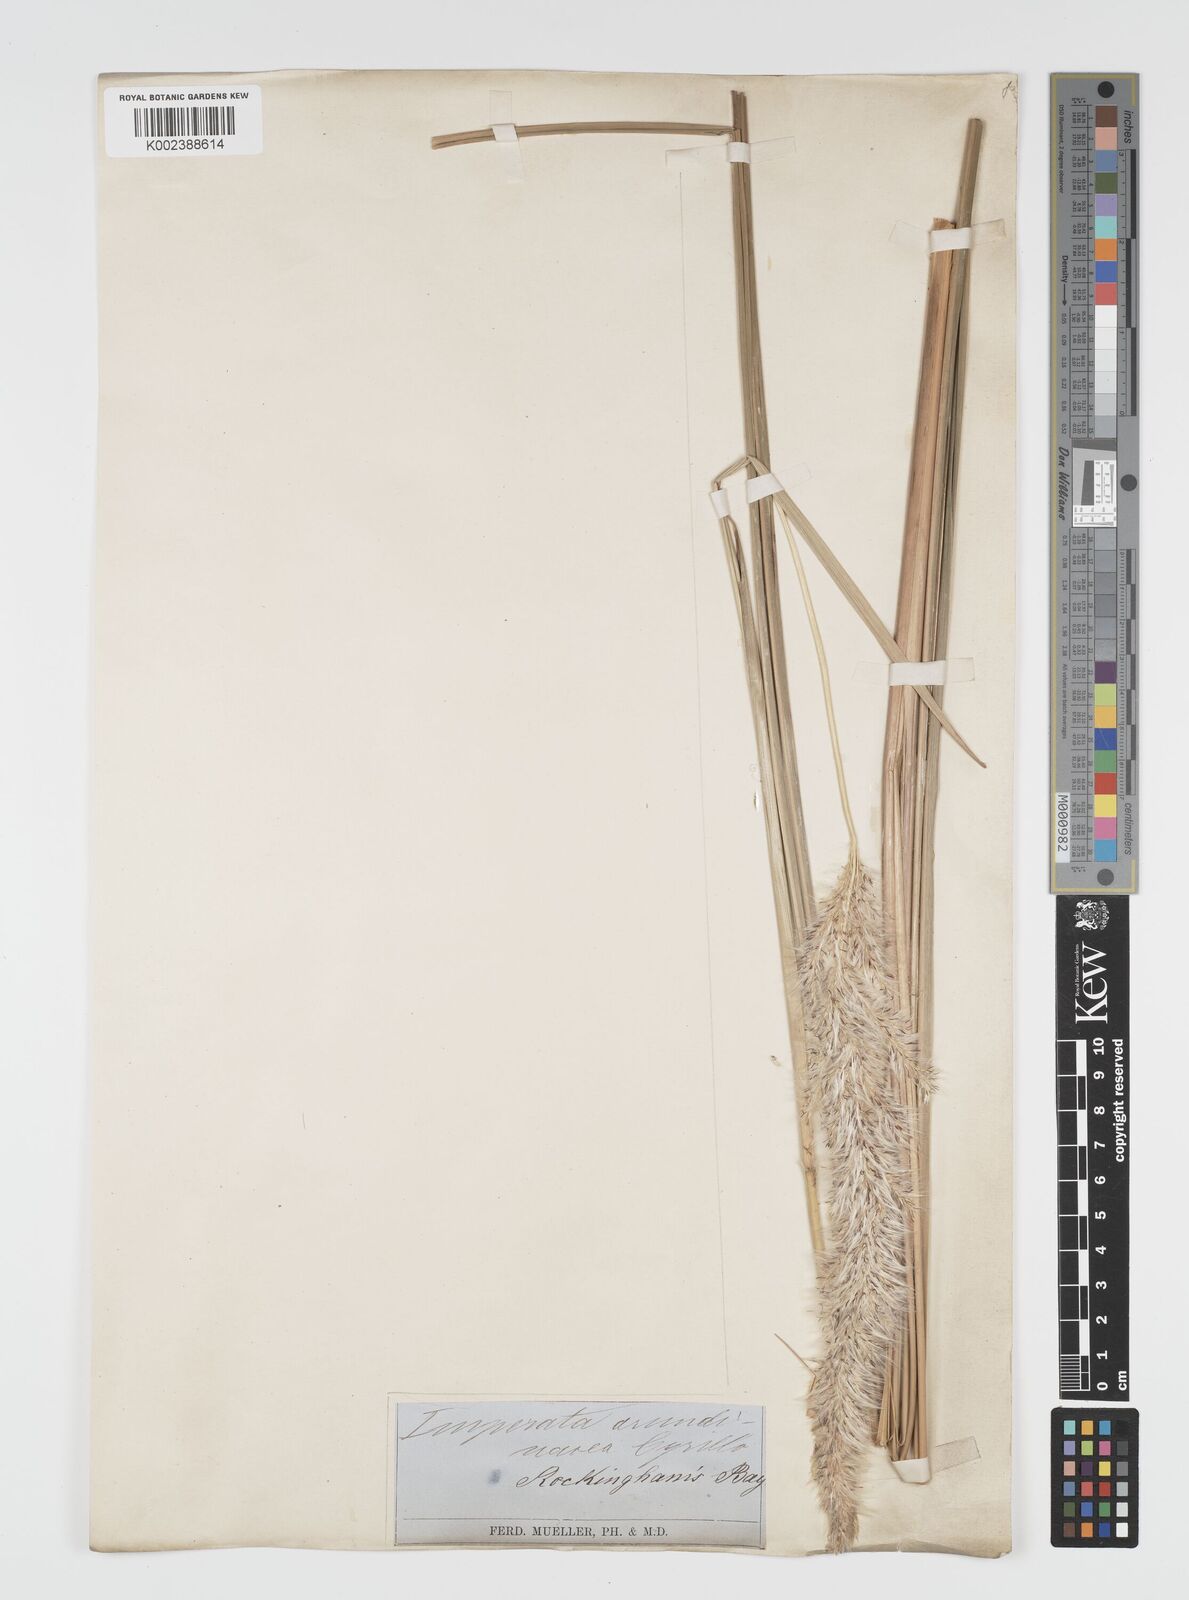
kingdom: Plantae
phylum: Tracheophyta
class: Liliopsida
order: Poales
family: Poaceae
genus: Imperata
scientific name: Imperata cylindrica
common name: Cogongrass
